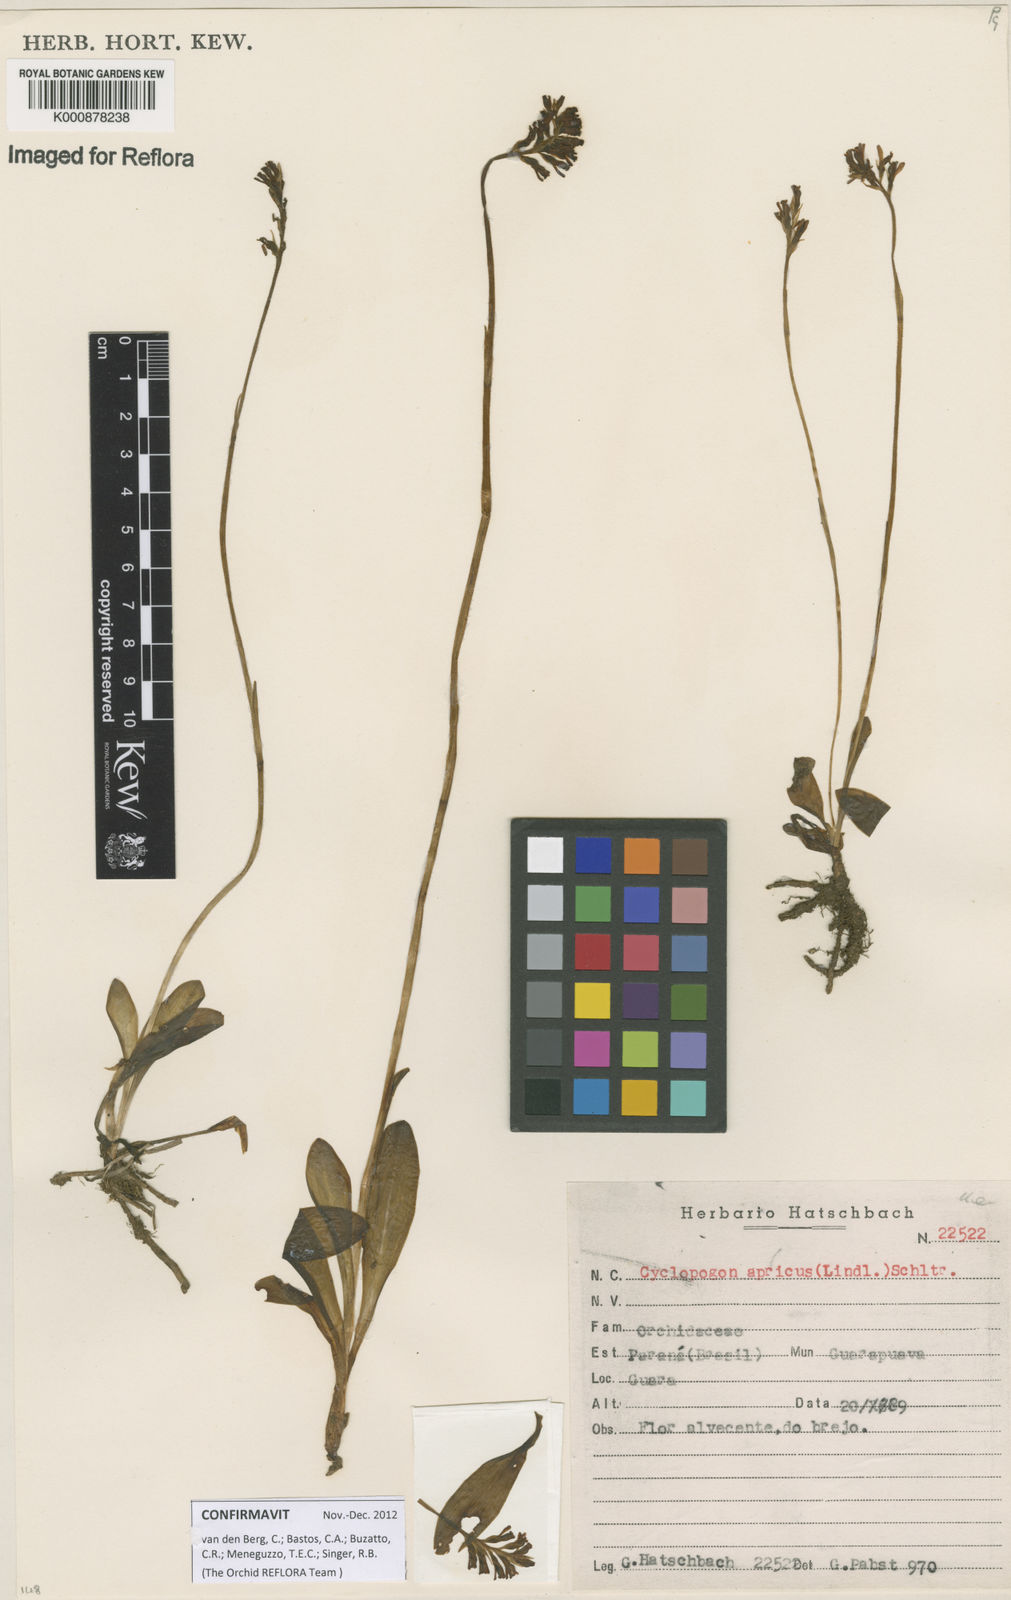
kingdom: Plantae
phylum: Tracheophyta
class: Liliopsida
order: Asparagales
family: Orchidaceae
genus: Cyclopogon
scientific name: Cyclopogon apricus
